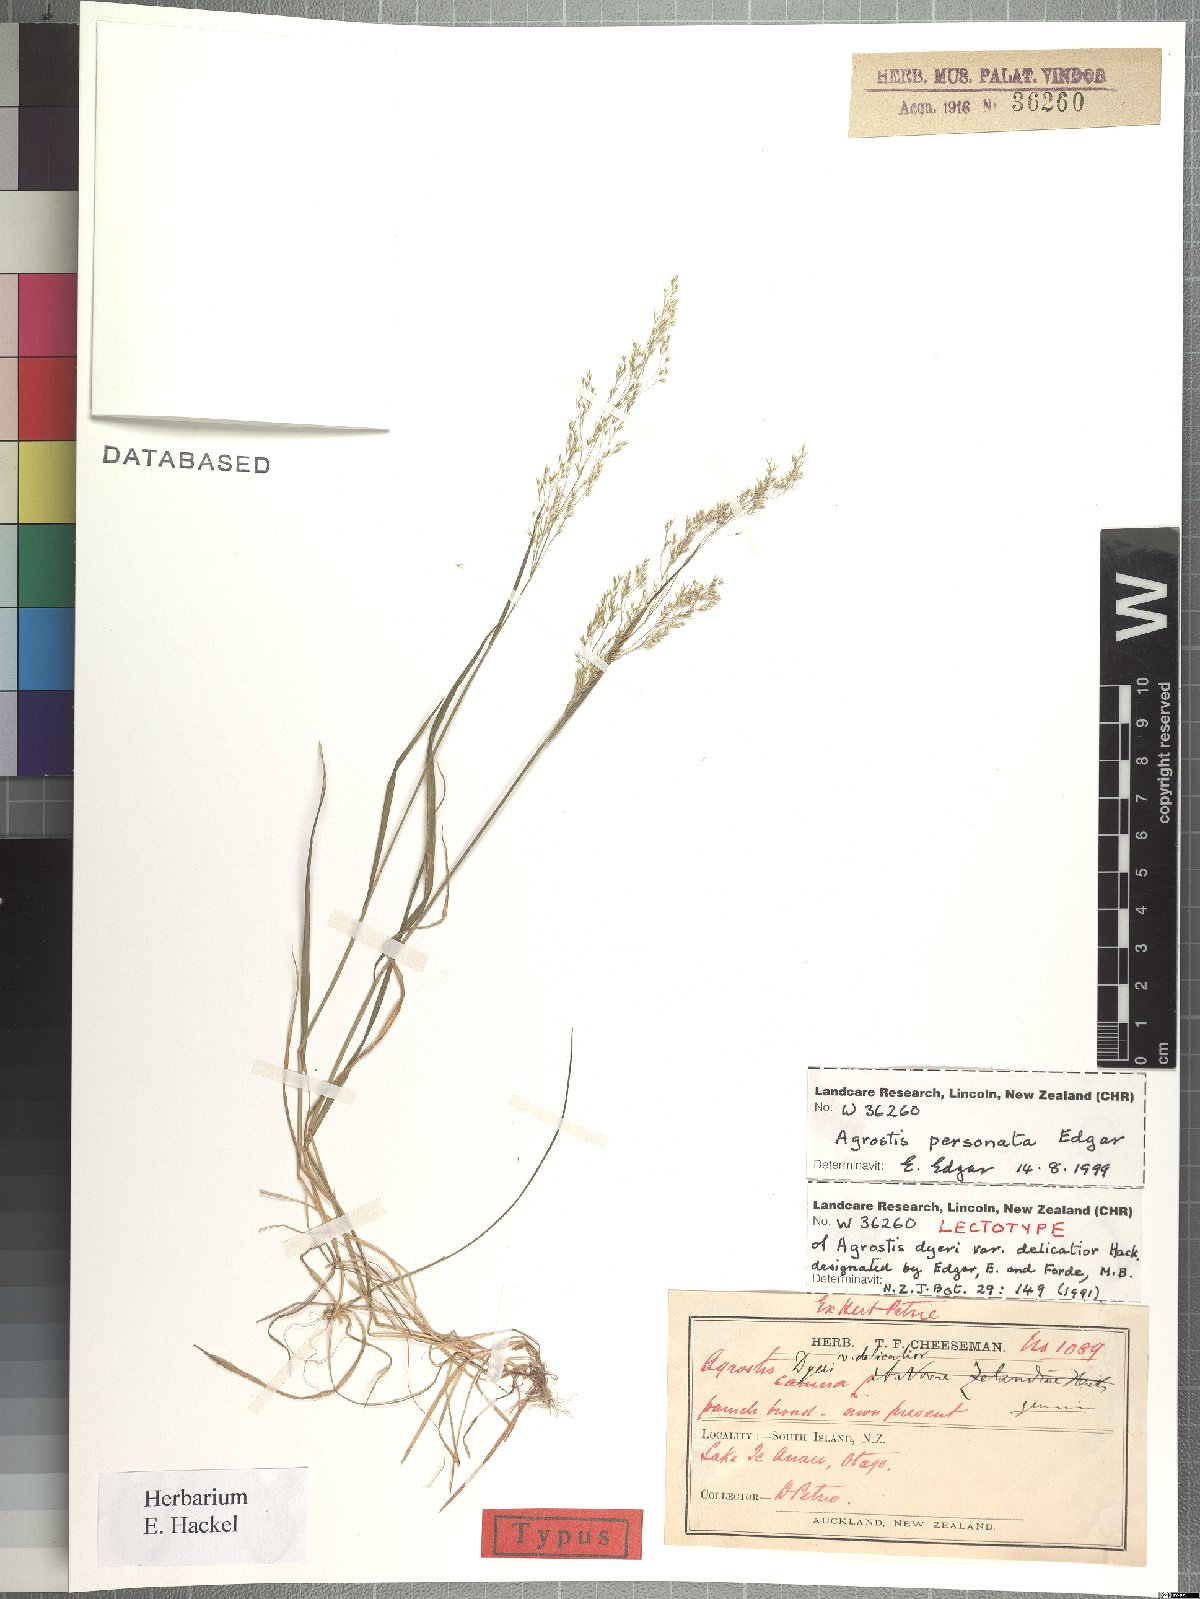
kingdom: Plantae
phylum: Tracheophyta
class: Liliopsida
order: Poales
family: Poaceae
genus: Agrostis
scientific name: Agrostis personata
